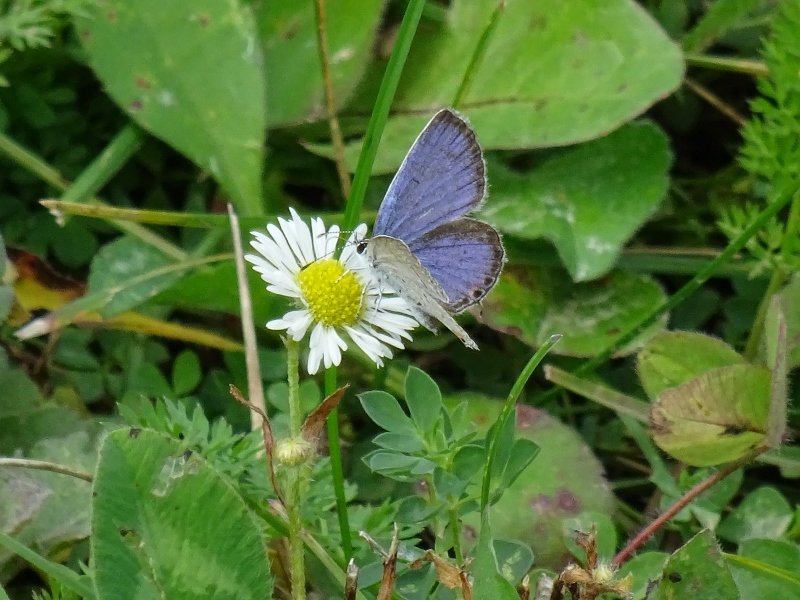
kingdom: Animalia
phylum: Arthropoda
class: Insecta
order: Lepidoptera
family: Lycaenidae
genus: Elkalyce
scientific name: Elkalyce comyntas
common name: Eastern Tailed-Blue
